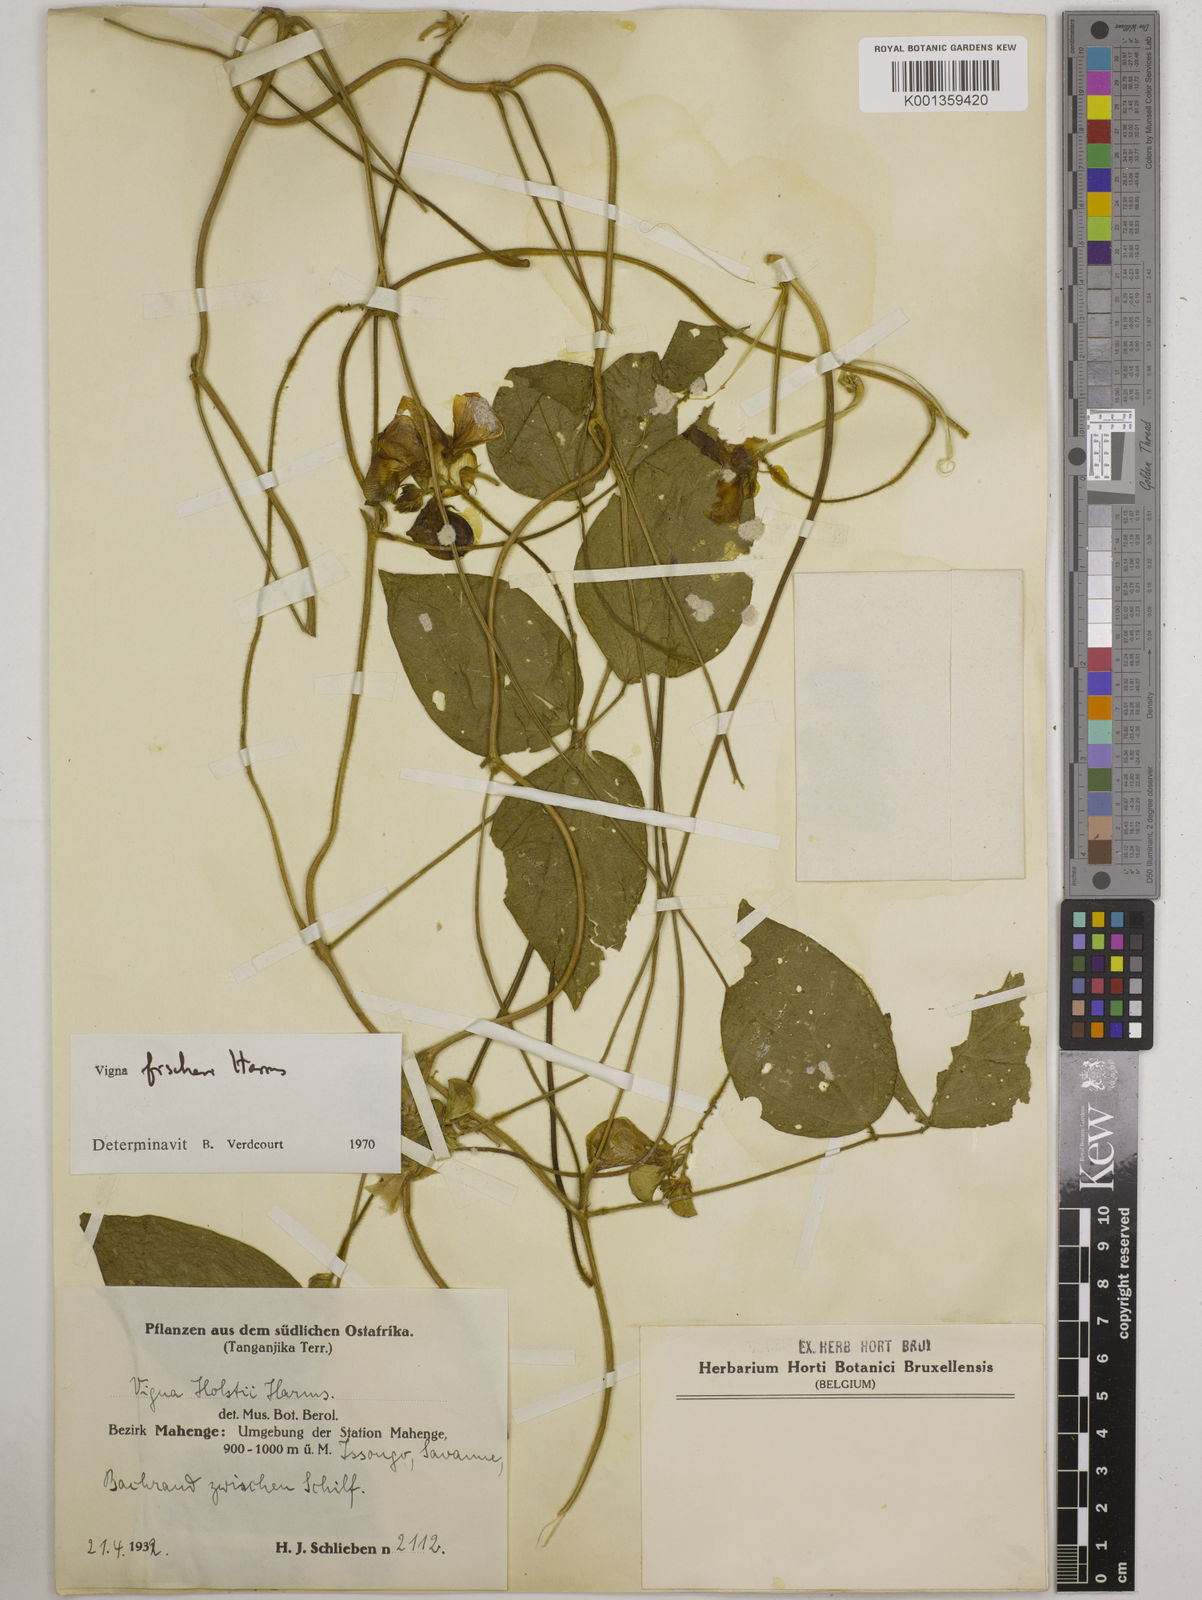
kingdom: Plantae
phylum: Tracheophyta
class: Magnoliopsida
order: Fabales
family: Fabaceae
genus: Vigna
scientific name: Vigna fischeri
